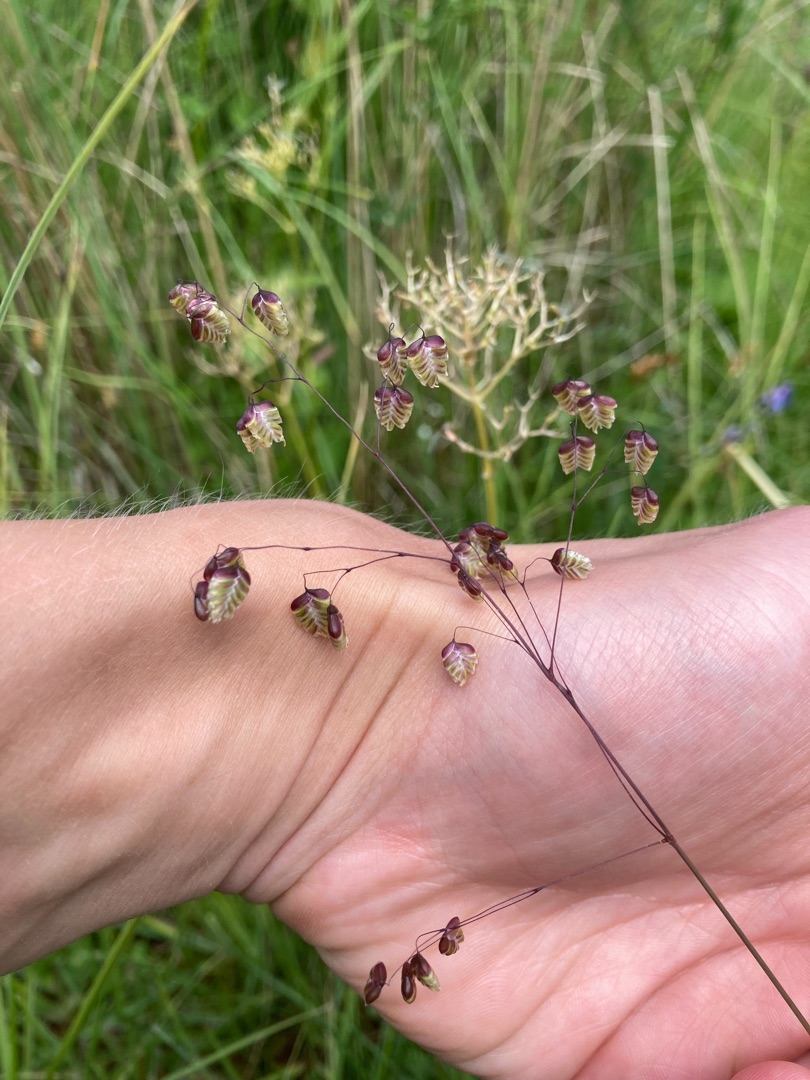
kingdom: Plantae
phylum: Tracheophyta
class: Liliopsida
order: Poales
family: Poaceae
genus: Briza
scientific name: Briza media
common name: Hjertegræs
